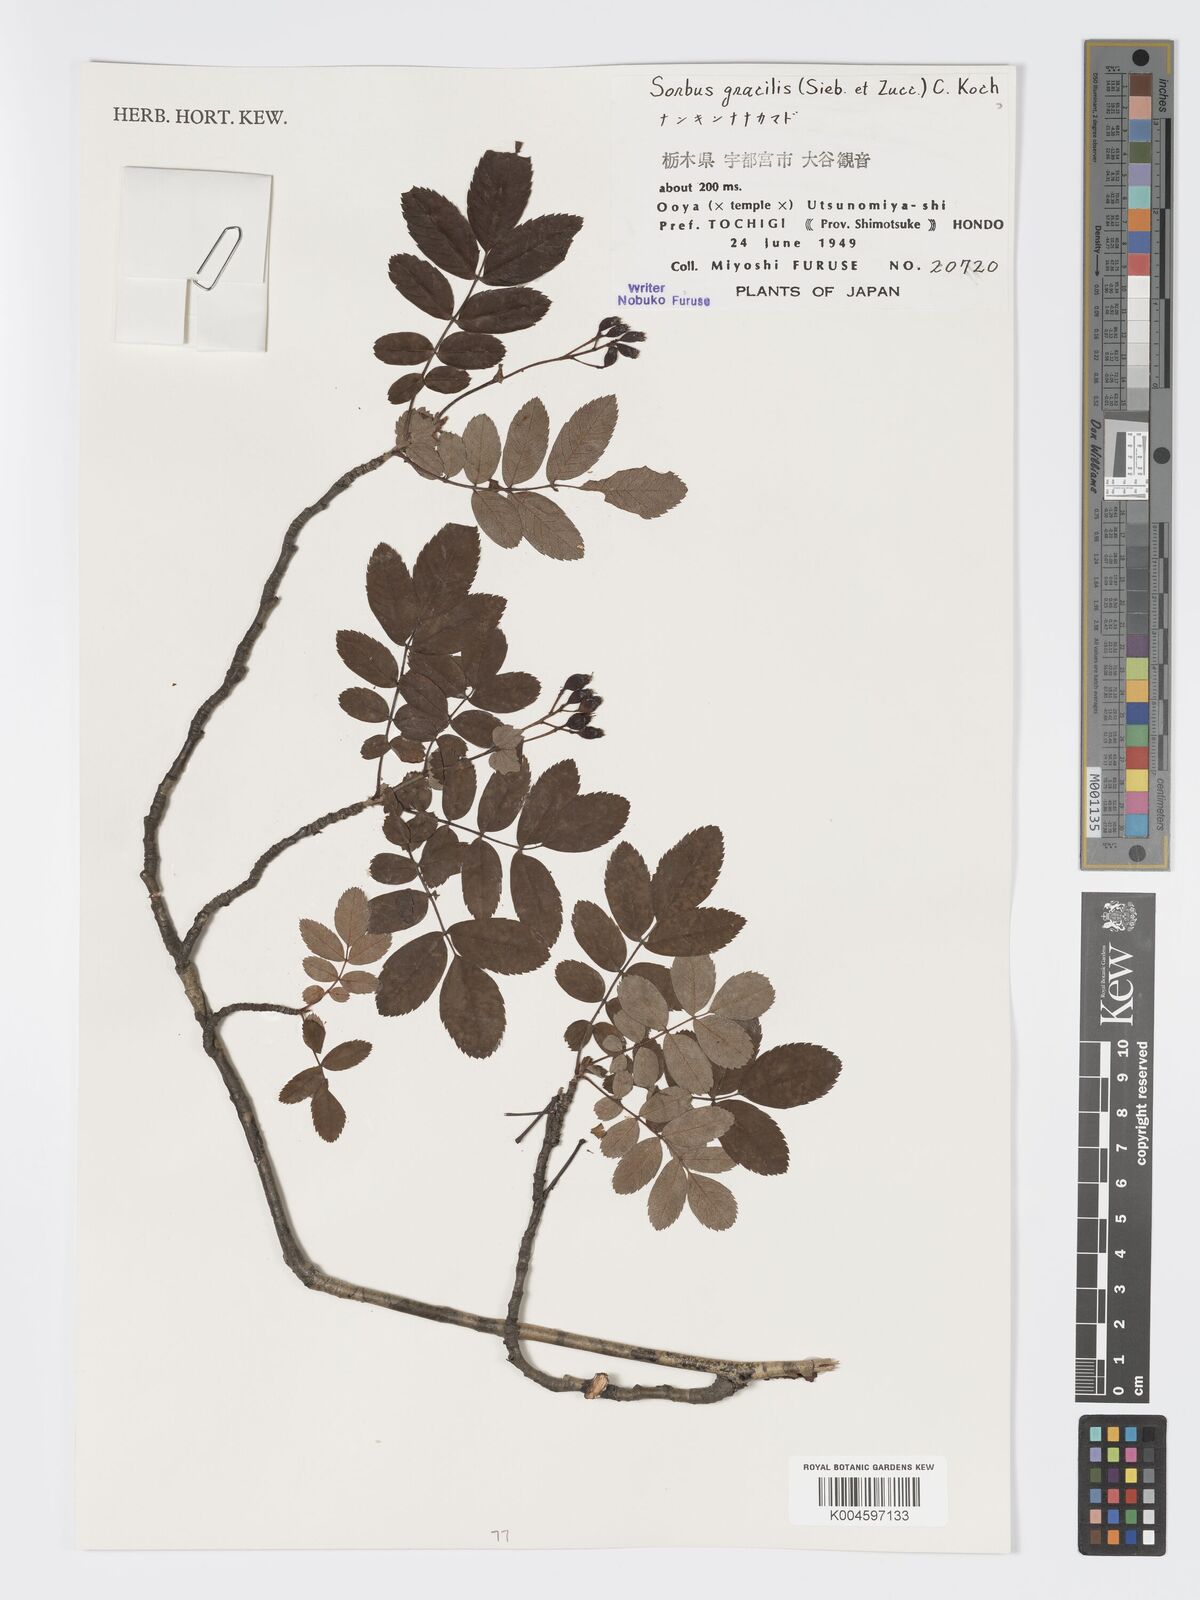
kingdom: Plantae
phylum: Tracheophyta
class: Magnoliopsida
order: Rosales
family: Rosaceae
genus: Sorbus
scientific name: Sorbus gracilis
